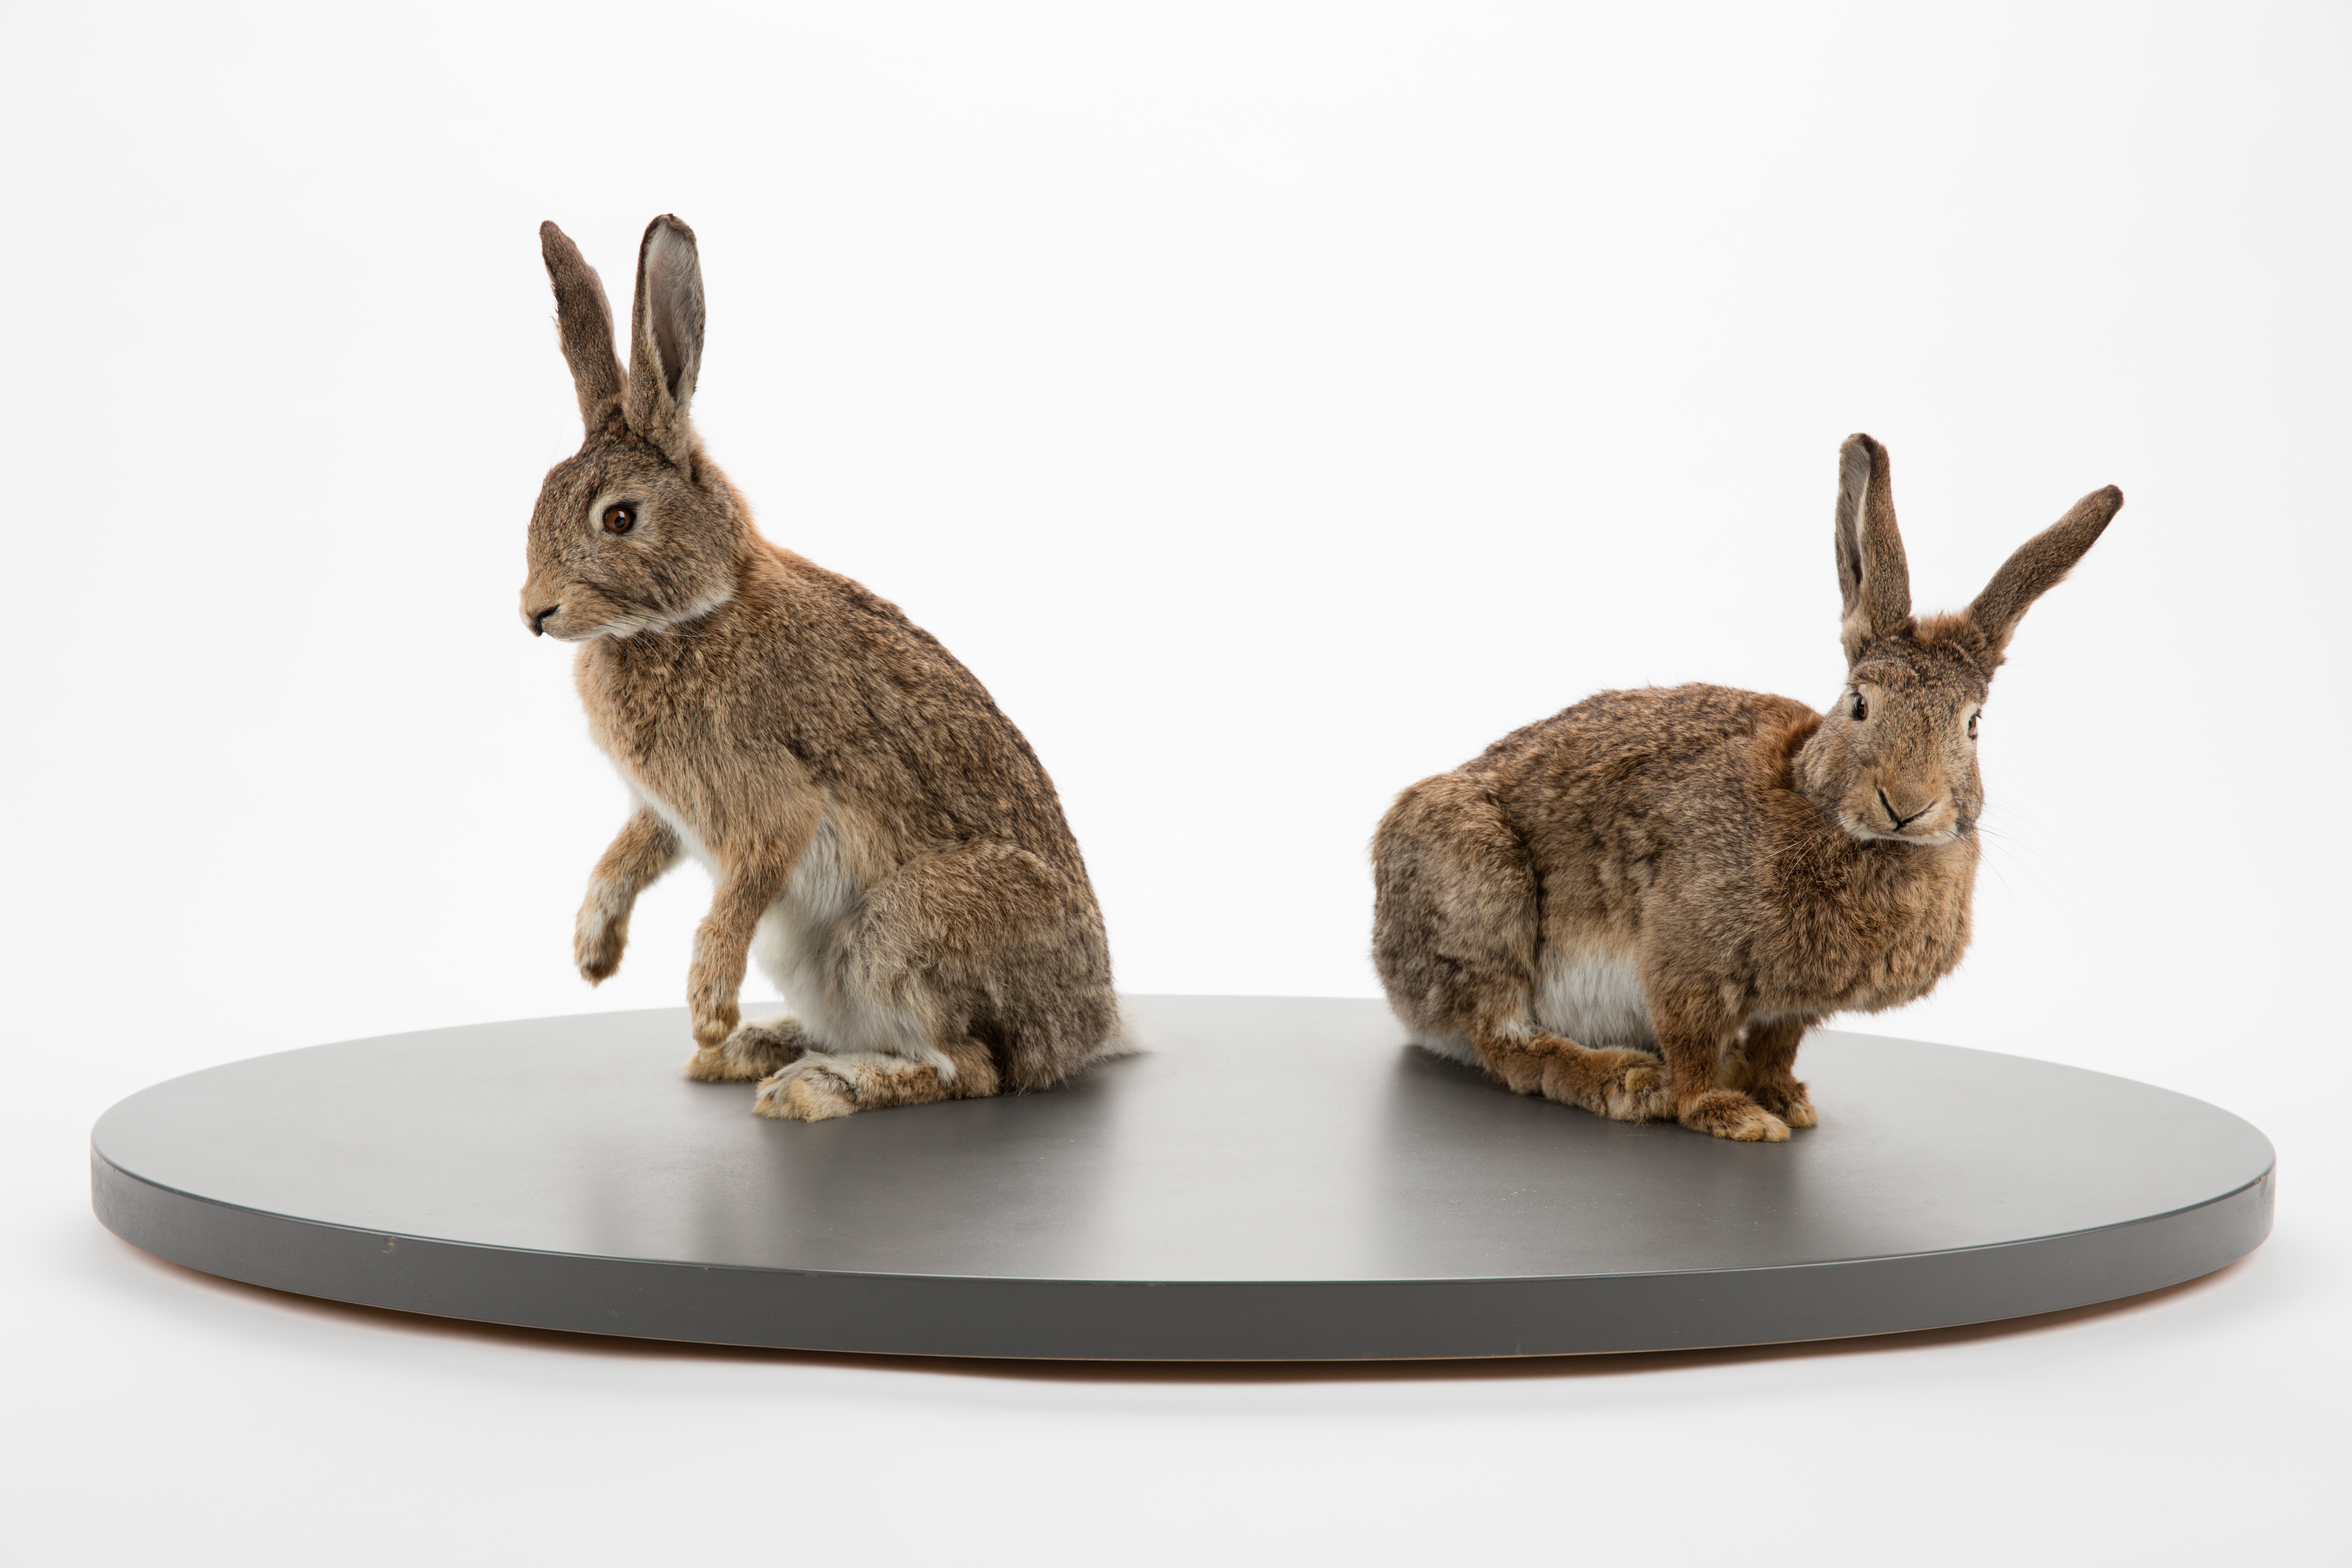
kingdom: Animalia
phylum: Chordata
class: Mammalia
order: Lagomorpha
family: Leporidae
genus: Oryctolagus
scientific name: Oryctolagus cuniculus
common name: European rabbit
